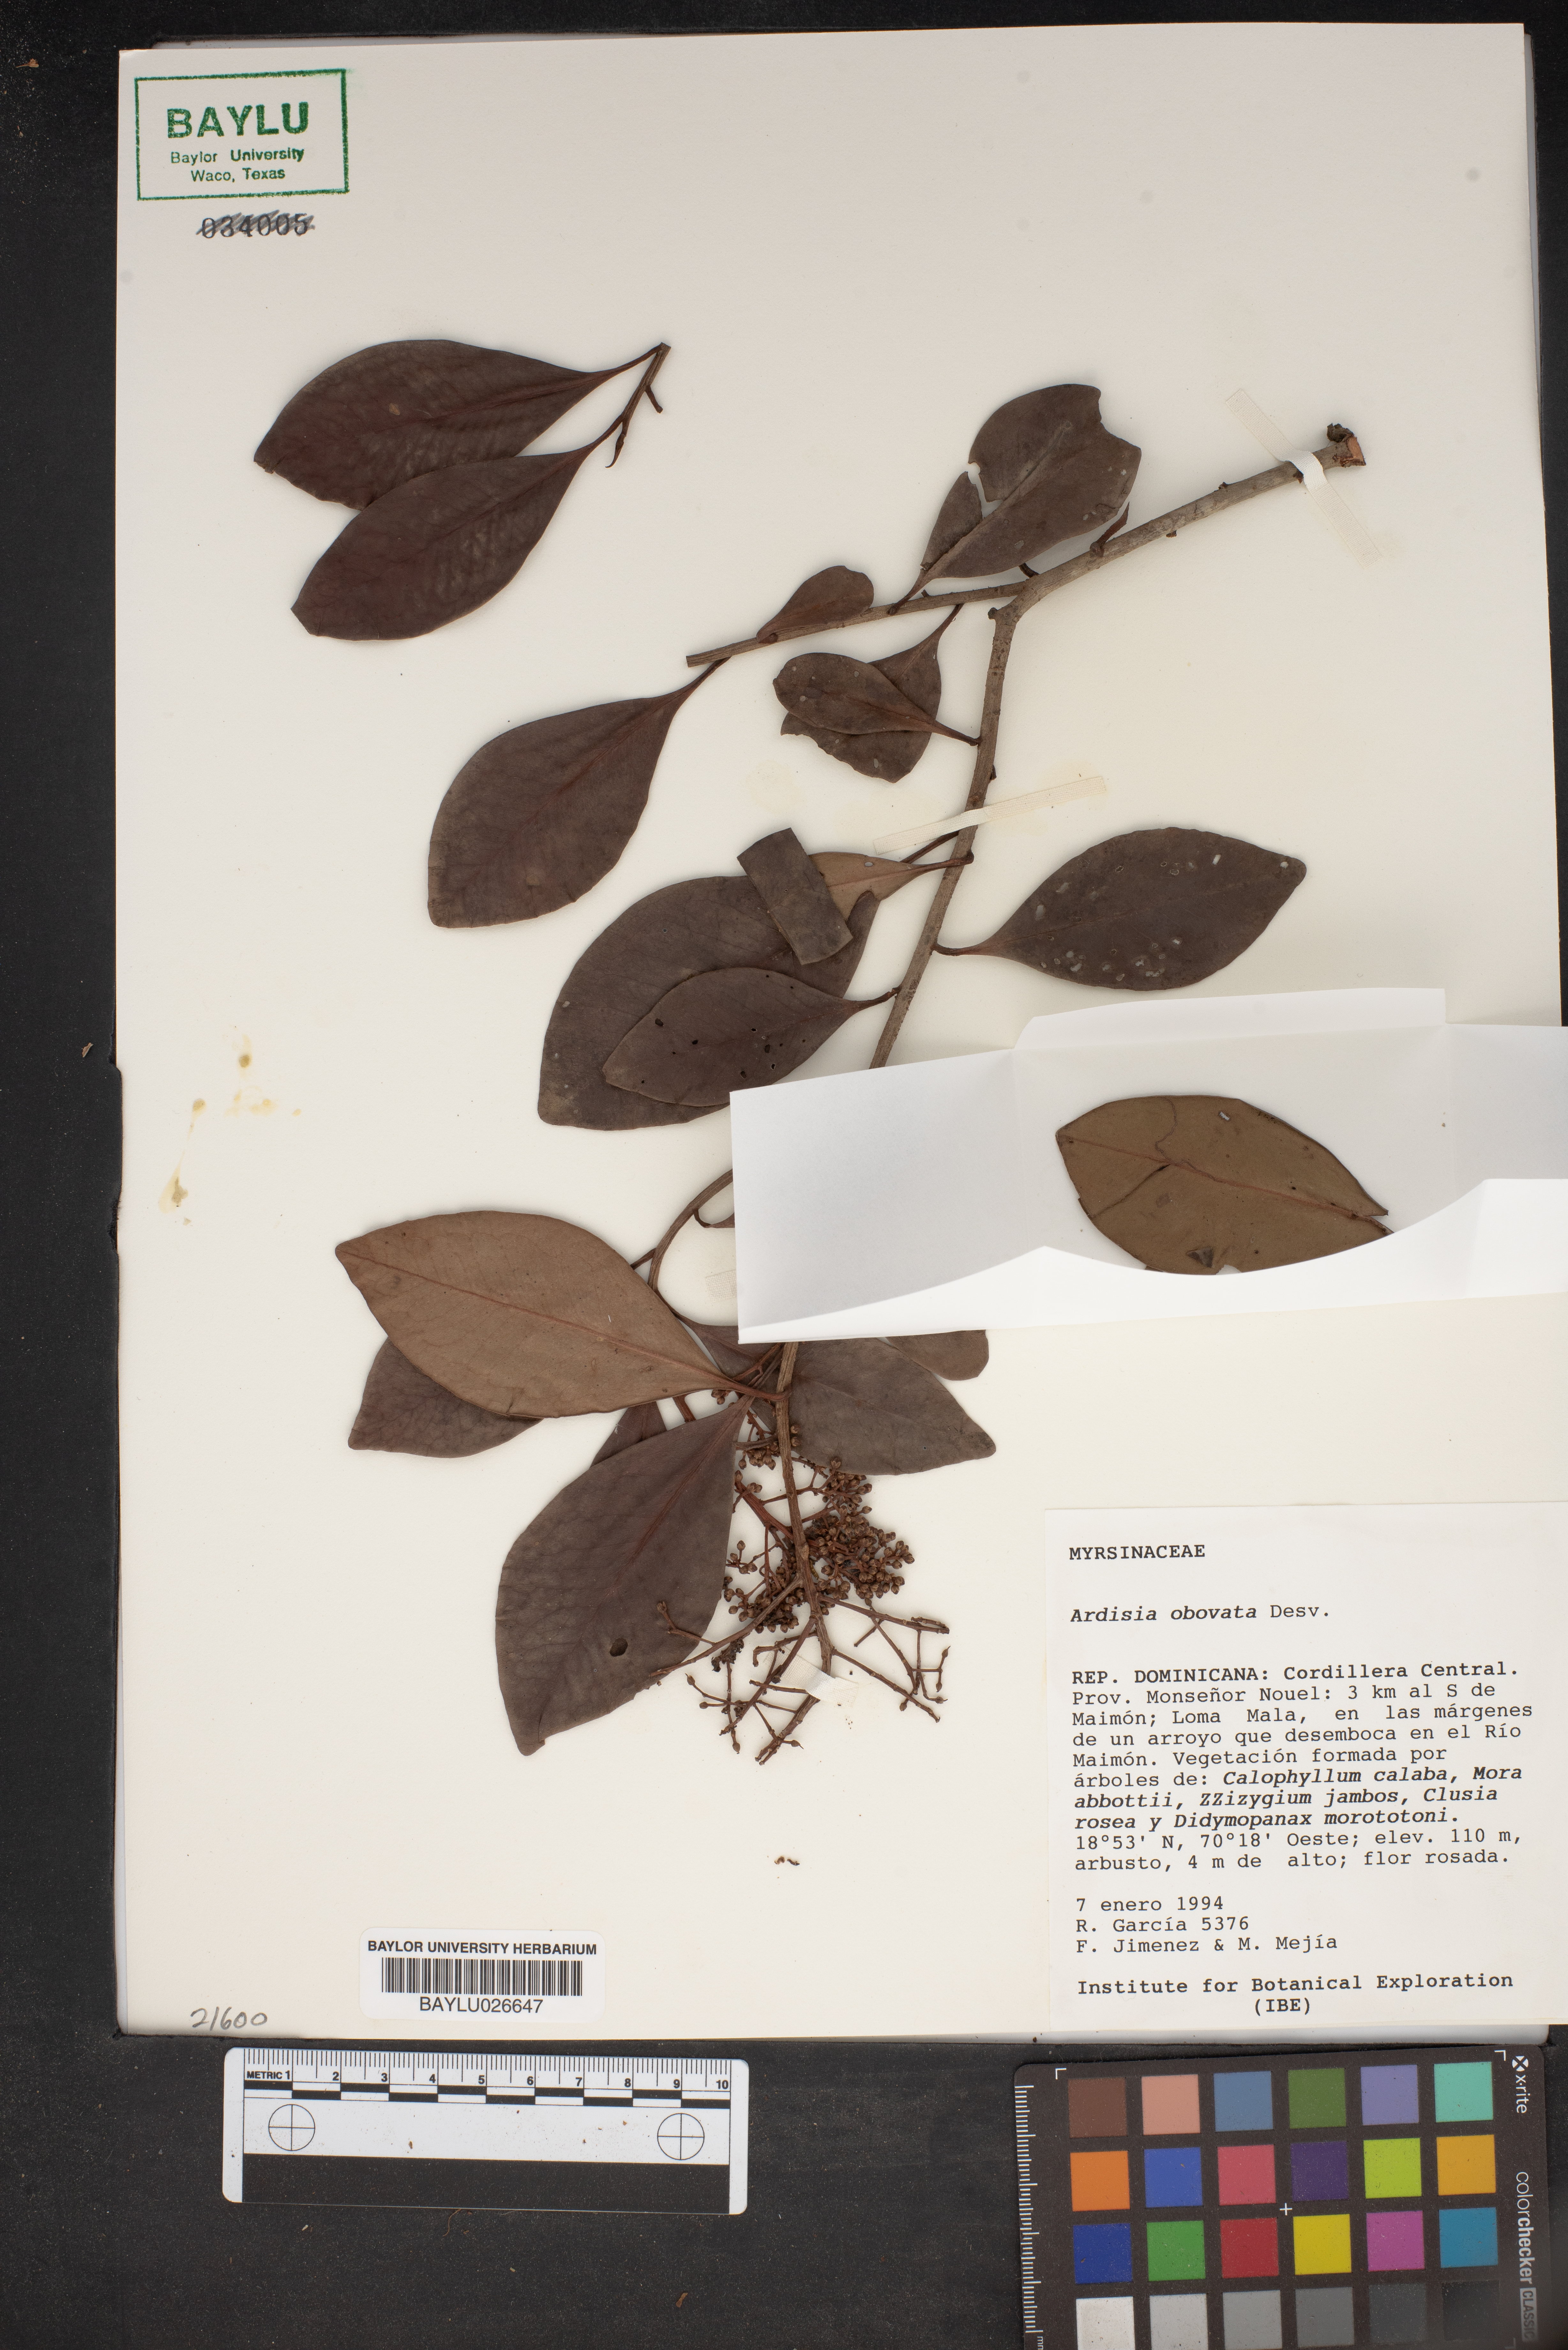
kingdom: Plantae
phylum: Tracheophyta
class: Magnoliopsida
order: Ericales
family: Primulaceae
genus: Ardisia
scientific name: Ardisia obovata
